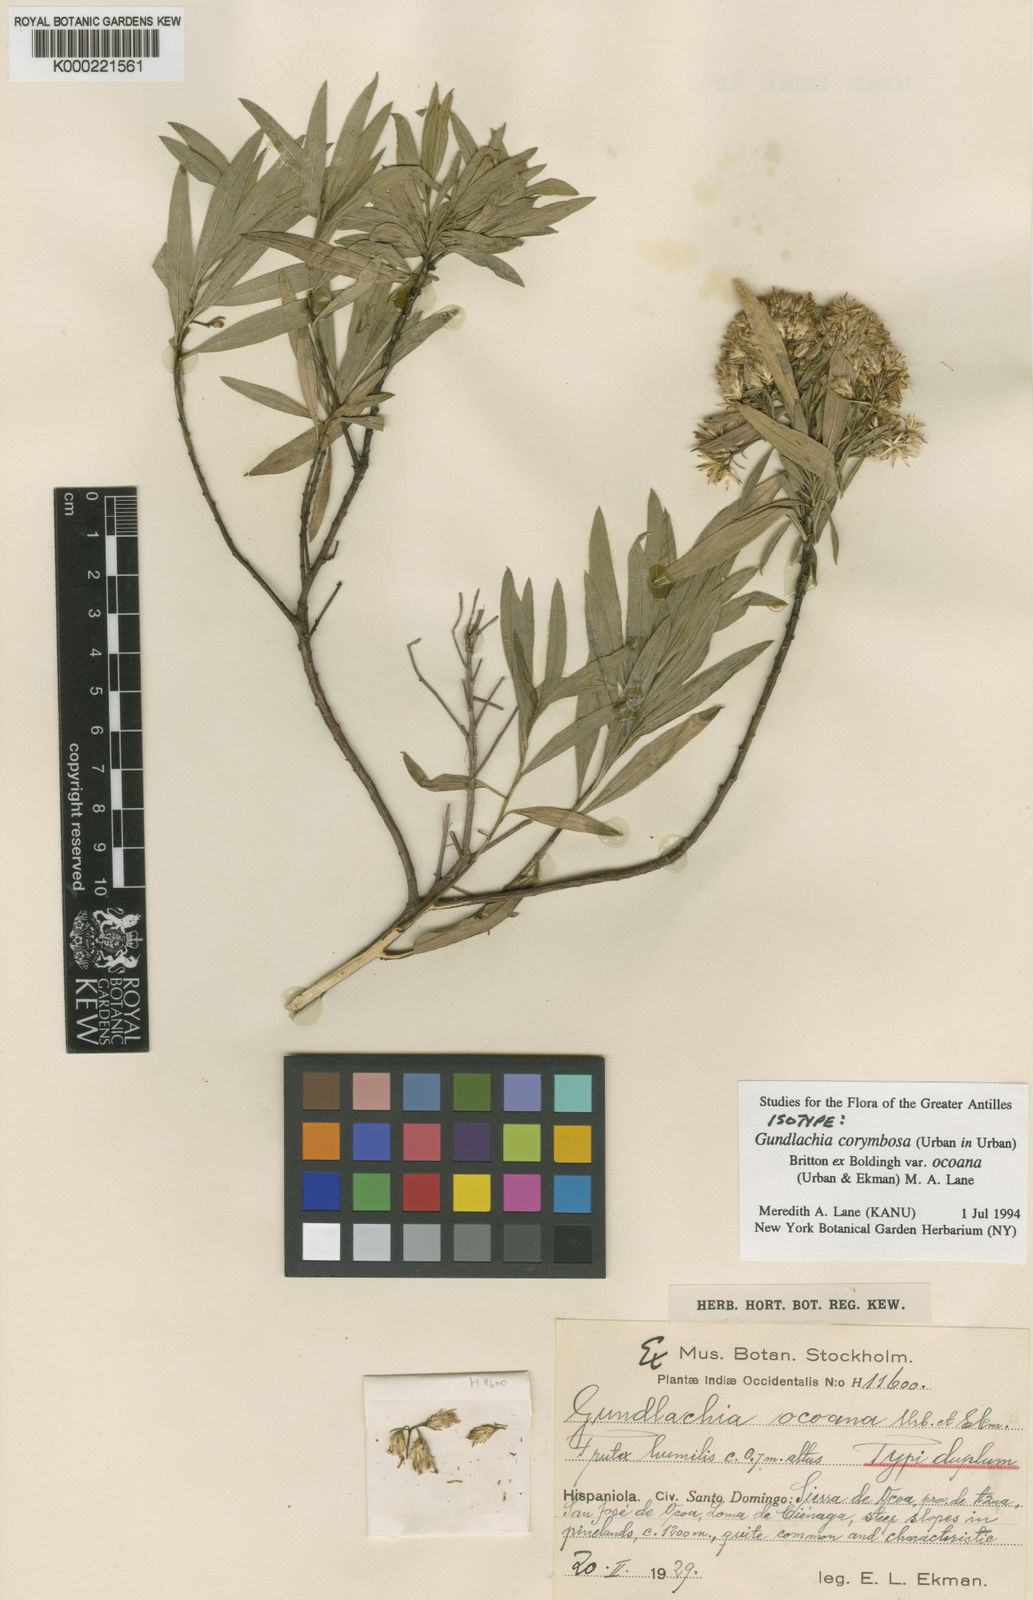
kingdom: Plantae
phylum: Tracheophyta
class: Magnoliopsida
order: Asterales
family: Asteraceae
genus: Gundlachia
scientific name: Gundlachia corymbosa
